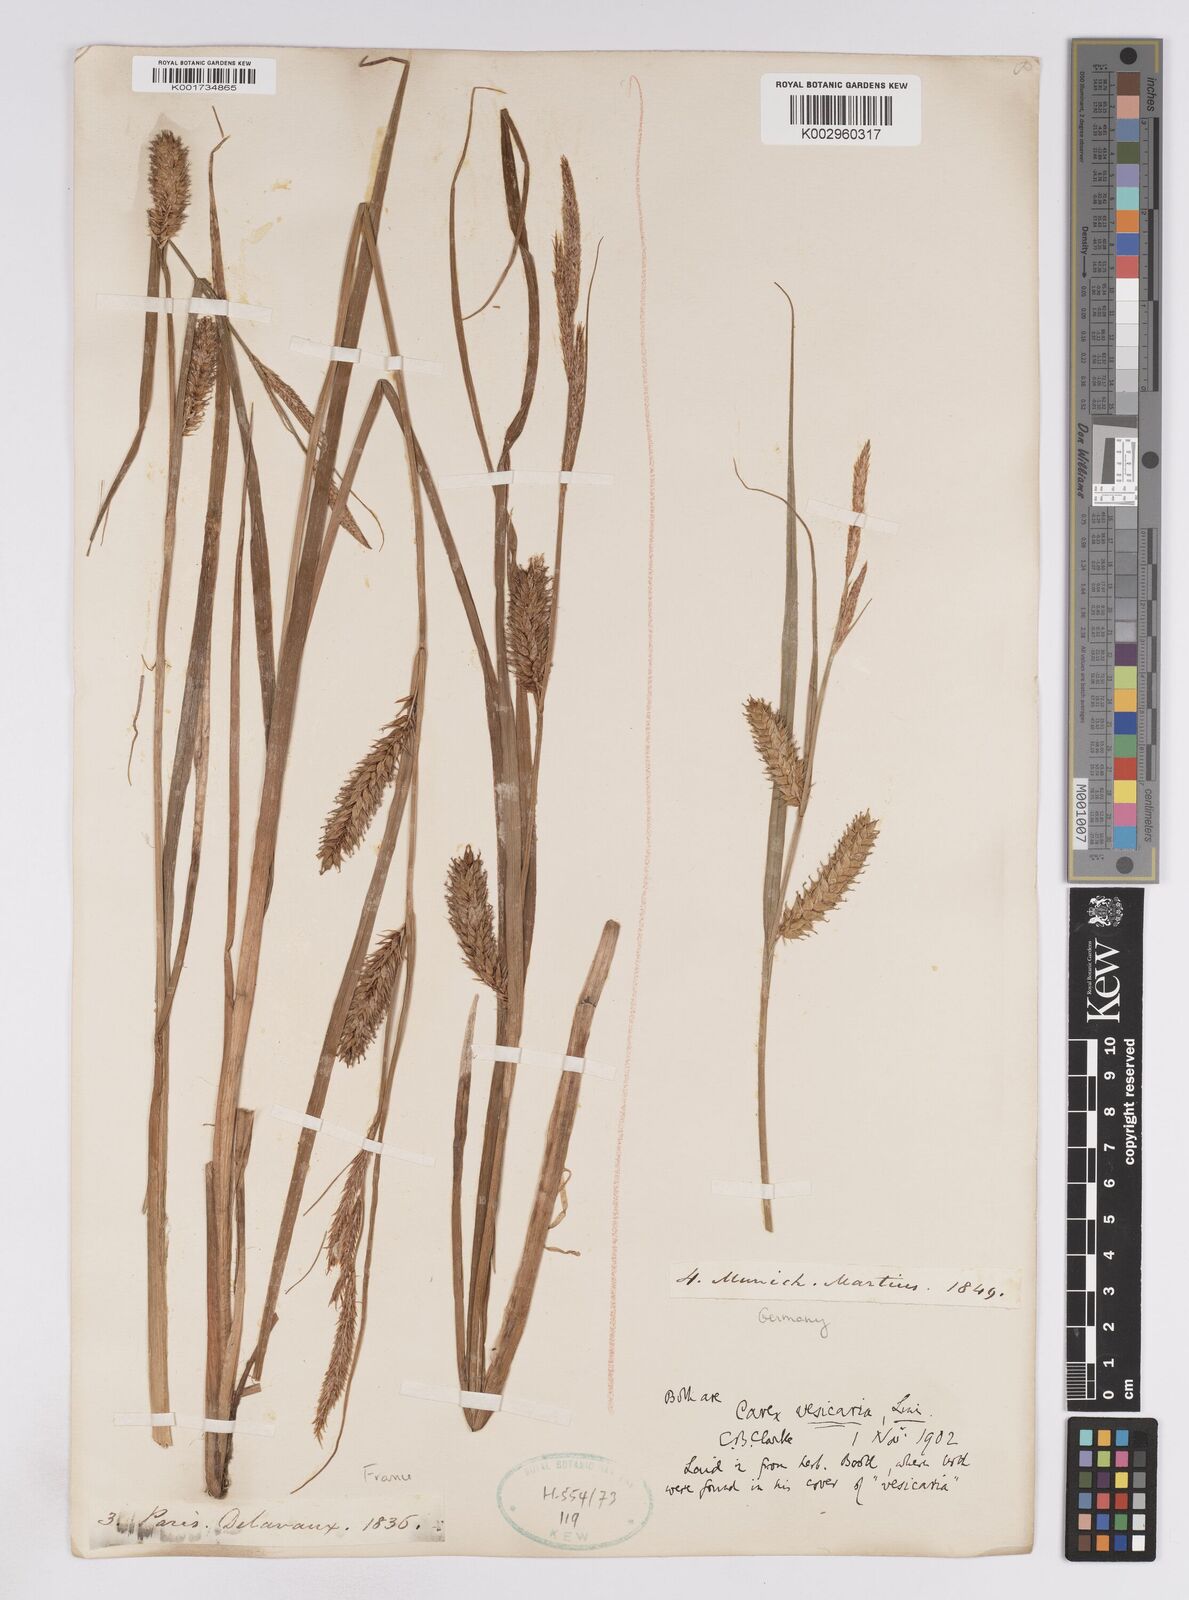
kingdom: Plantae
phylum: Tracheophyta
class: Liliopsida
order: Poales
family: Cyperaceae
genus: Carex
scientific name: Carex vesicaria
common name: Bladder-sedge
